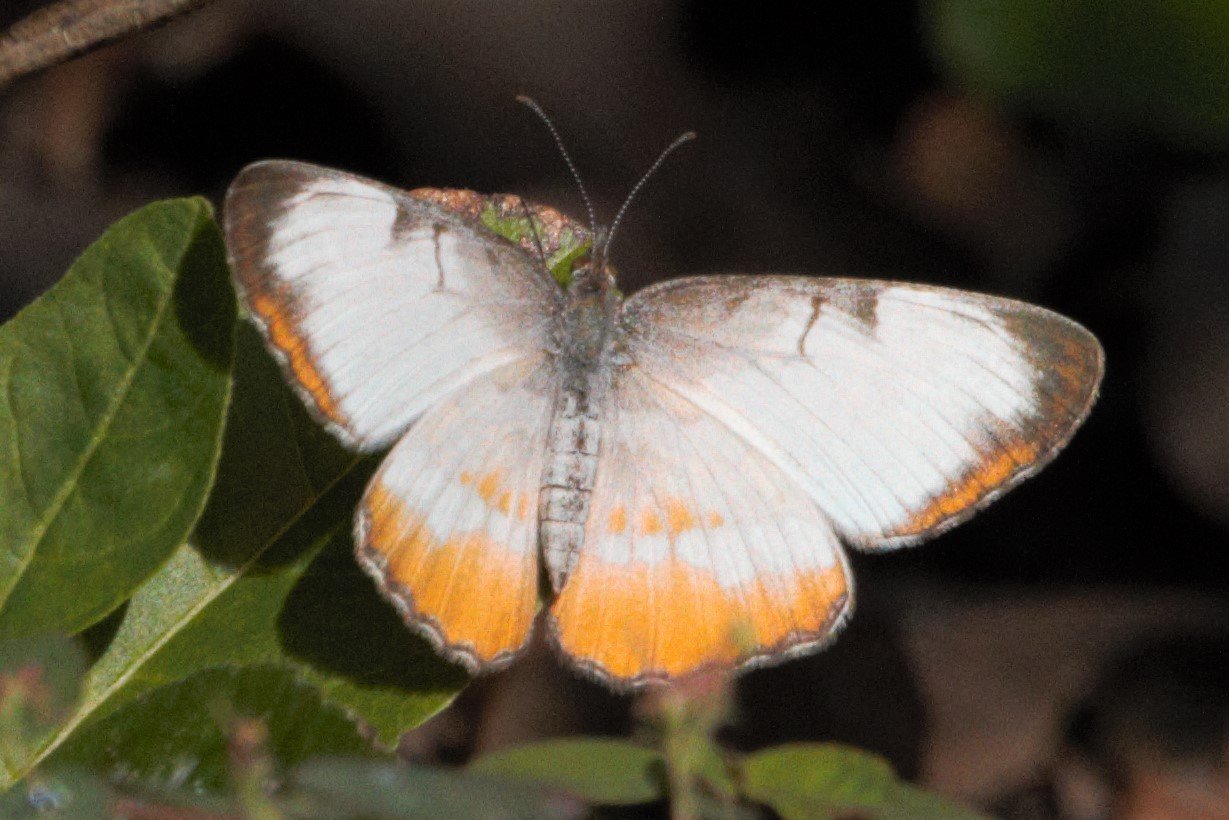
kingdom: Animalia
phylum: Arthropoda
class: Insecta
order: Lepidoptera
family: Nymphalidae
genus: Mestra
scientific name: Mestra amymone
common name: Common Mestra
